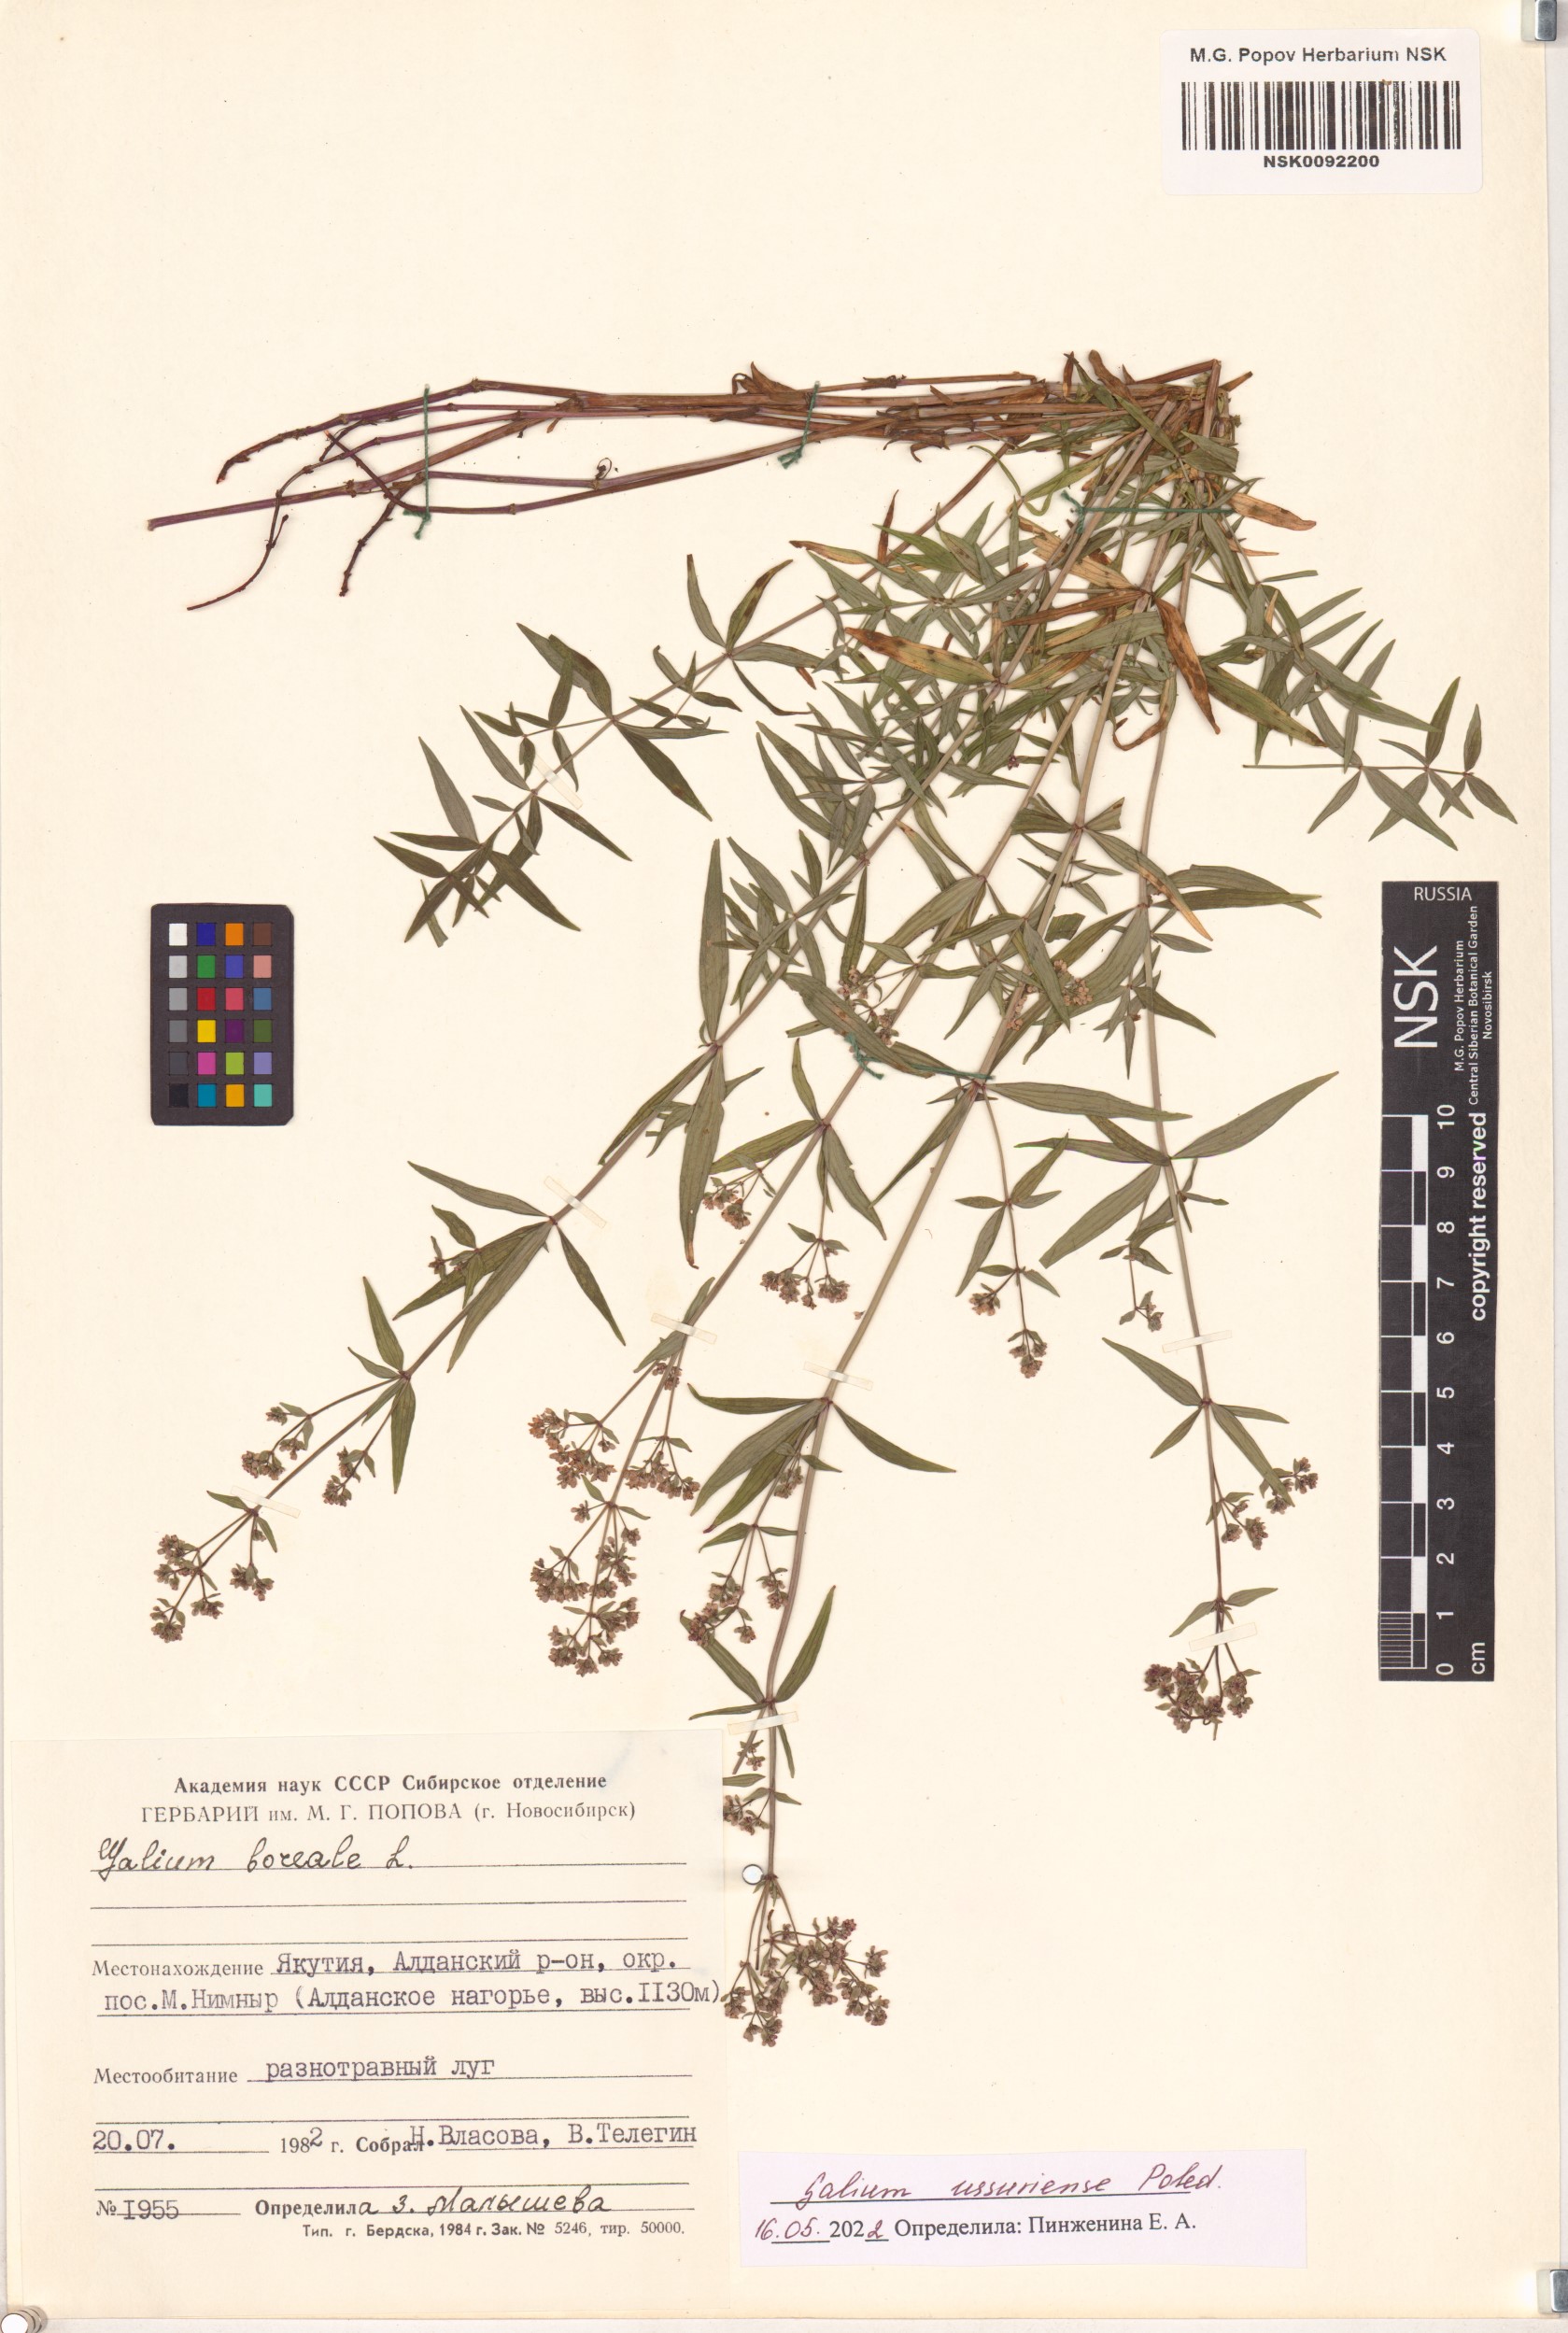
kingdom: Plantae
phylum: Tracheophyta
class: Magnoliopsida
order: Gentianales
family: Rubiaceae
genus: Galium
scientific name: Galium boreale
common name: Northern bedstraw
